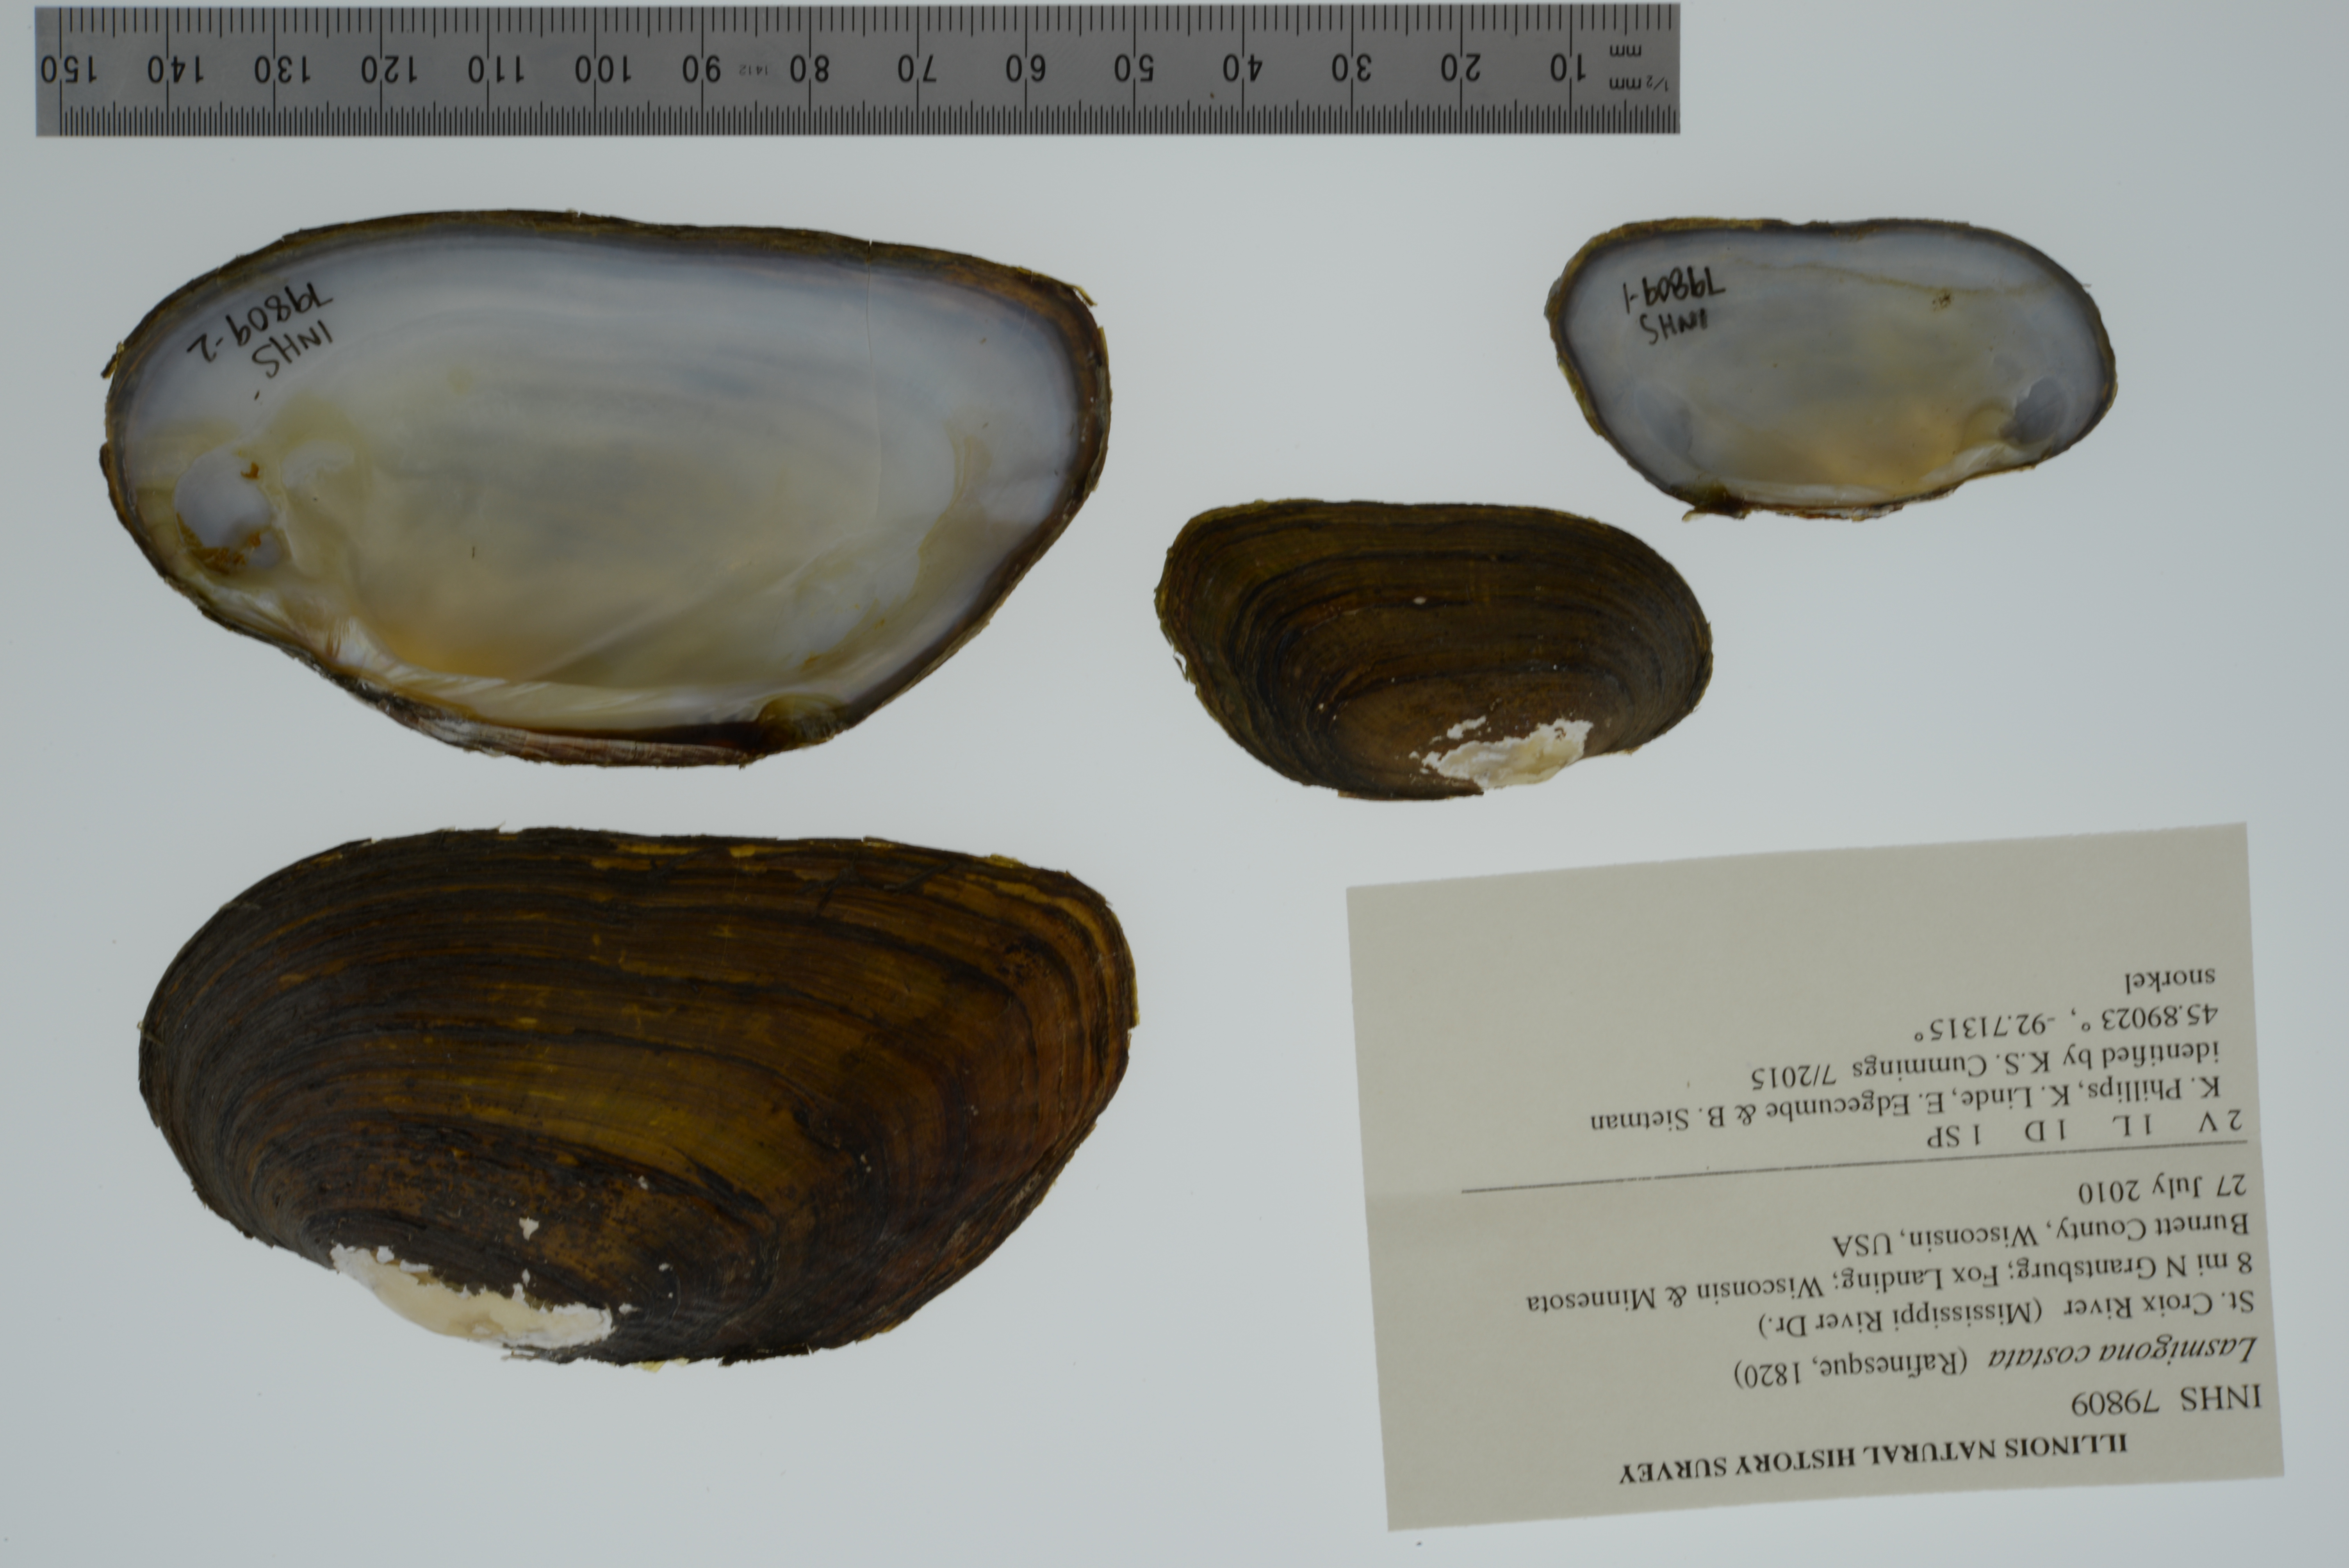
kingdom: Animalia
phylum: Mollusca
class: Bivalvia
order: Unionida
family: Unionidae
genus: Lasmigona
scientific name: Lasmigona costata
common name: Flutedshell
